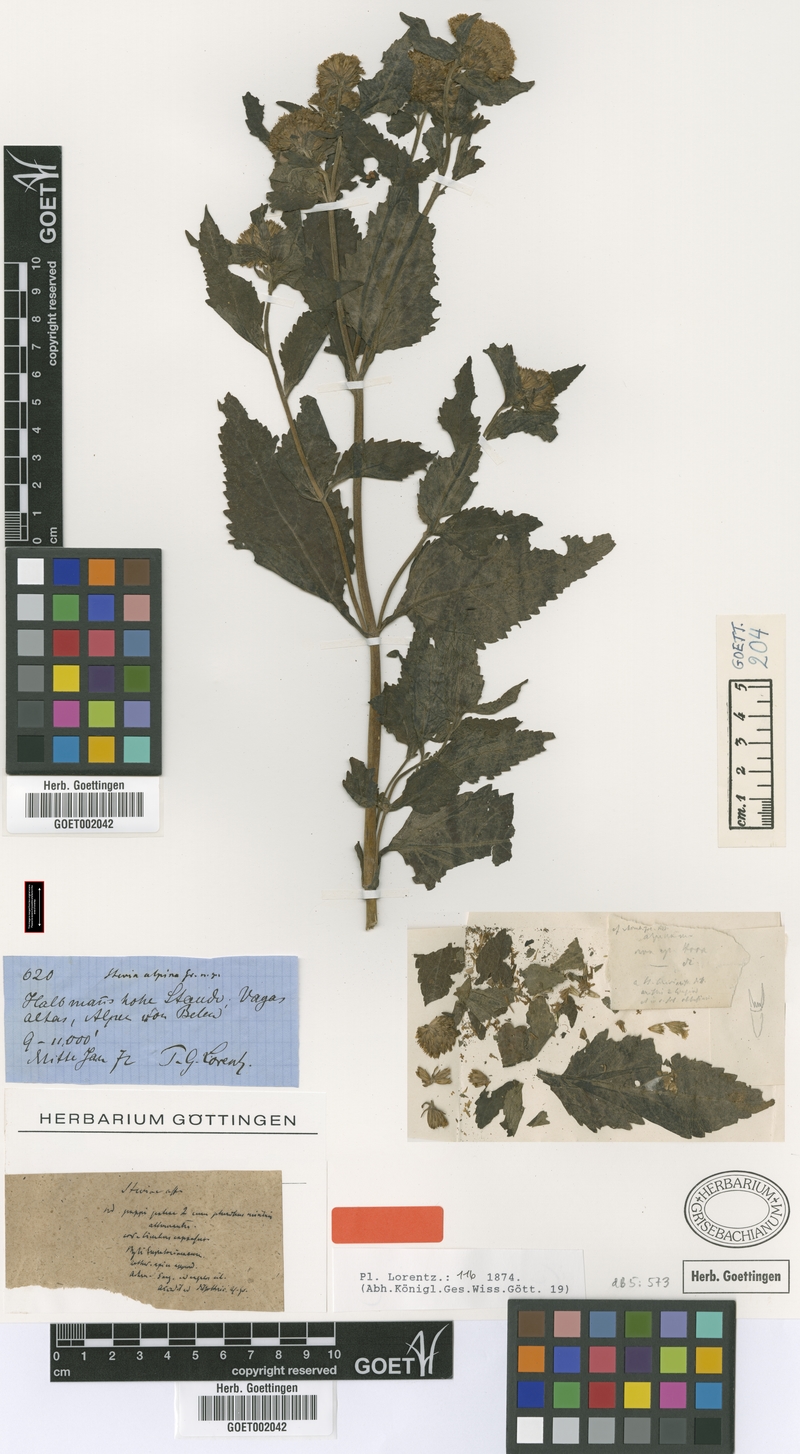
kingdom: Plantae
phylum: Tracheophyta
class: Magnoliopsida
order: Asterales
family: Asteraceae
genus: Stevia
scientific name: Stevia alpina
